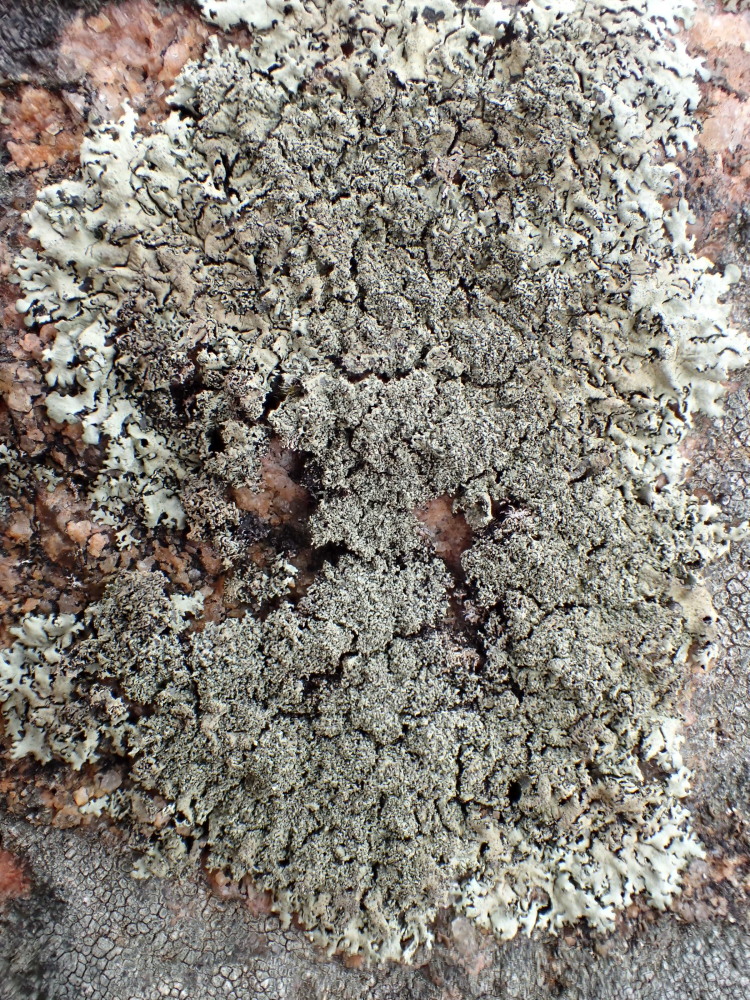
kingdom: Fungi
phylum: Ascomycota
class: Lecanoromycetes
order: Lecanorales
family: Parmeliaceae
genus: Xanthoparmelia
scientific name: Xanthoparmelia conspersa
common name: messing-skållav
